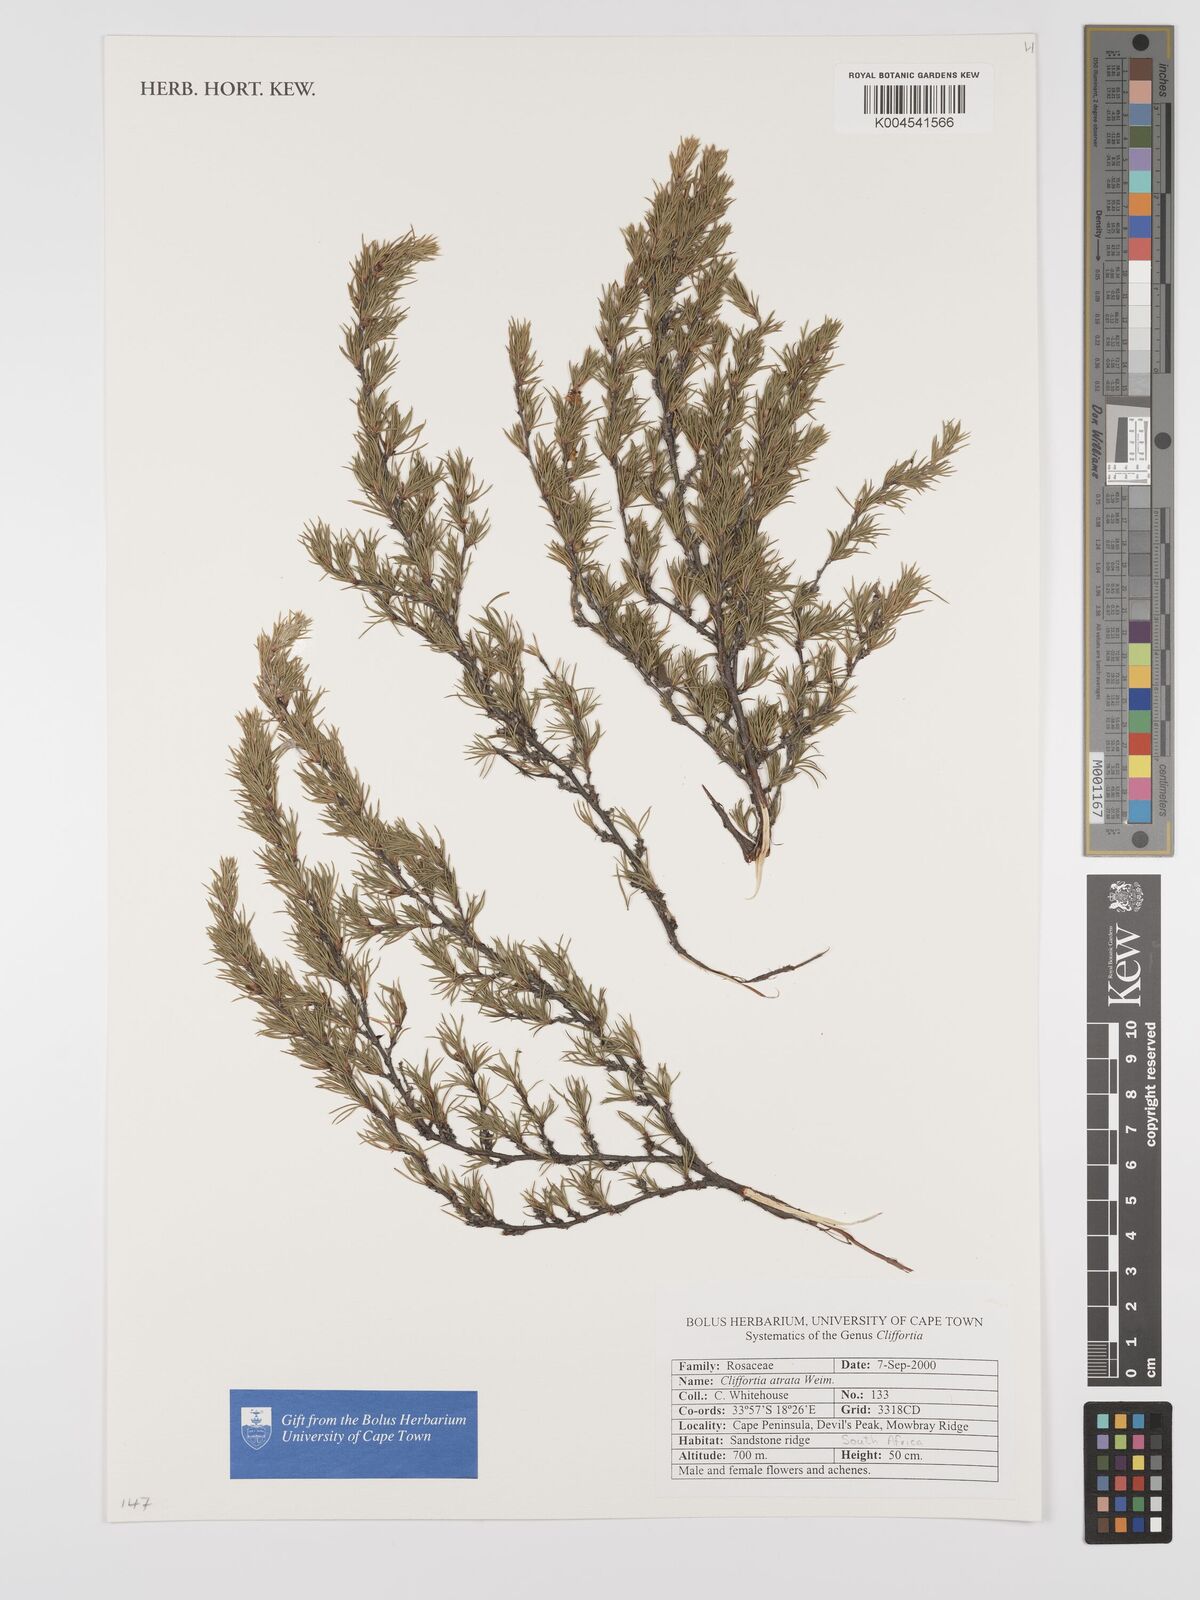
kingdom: Plantae
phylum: Tracheophyta
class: Magnoliopsida
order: Rosales
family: Rosaceae
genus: Cliffortia
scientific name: Cliffortia atrata
